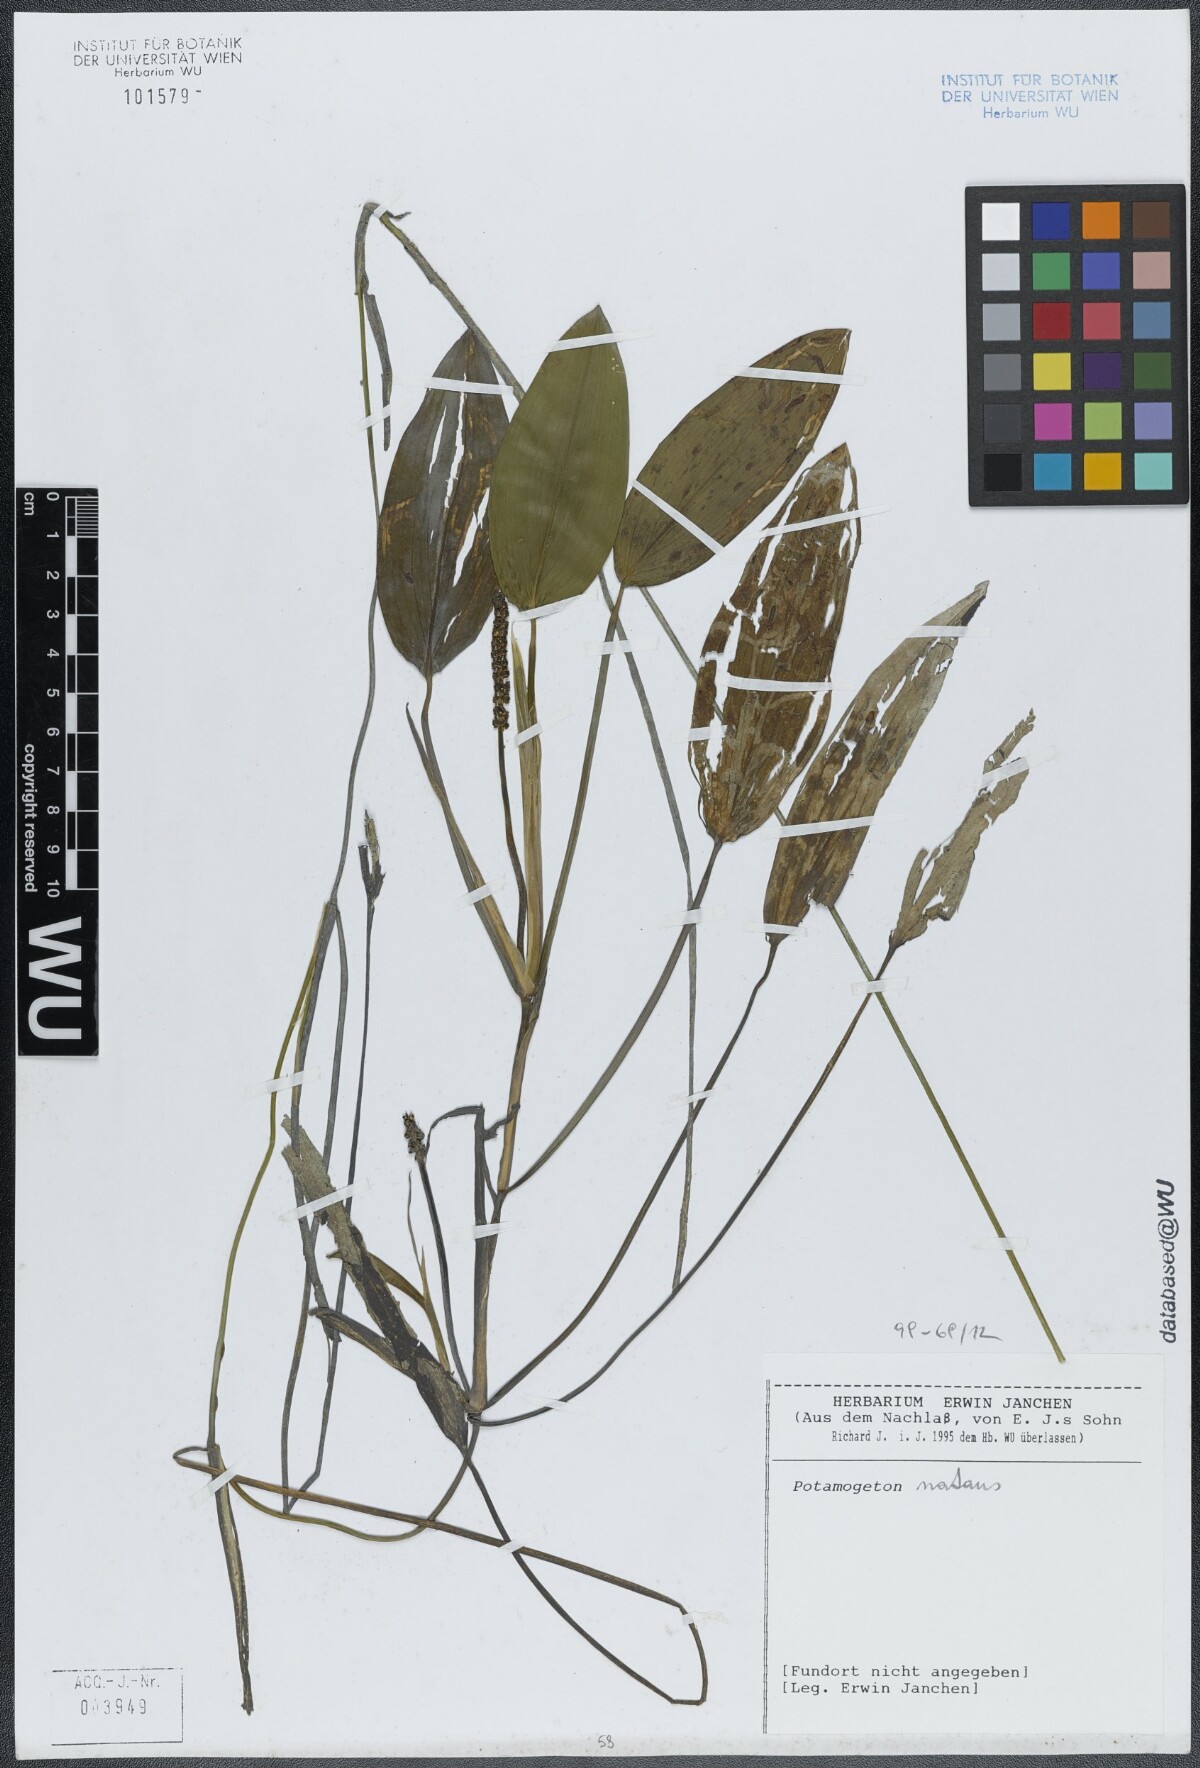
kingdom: Plantae
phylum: Tracheophyta
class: Liliopsida
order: Alismatales
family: Potamogetonaceae
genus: Potamogeton
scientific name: Potamogeton natans
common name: Broad-leaved pondweed
